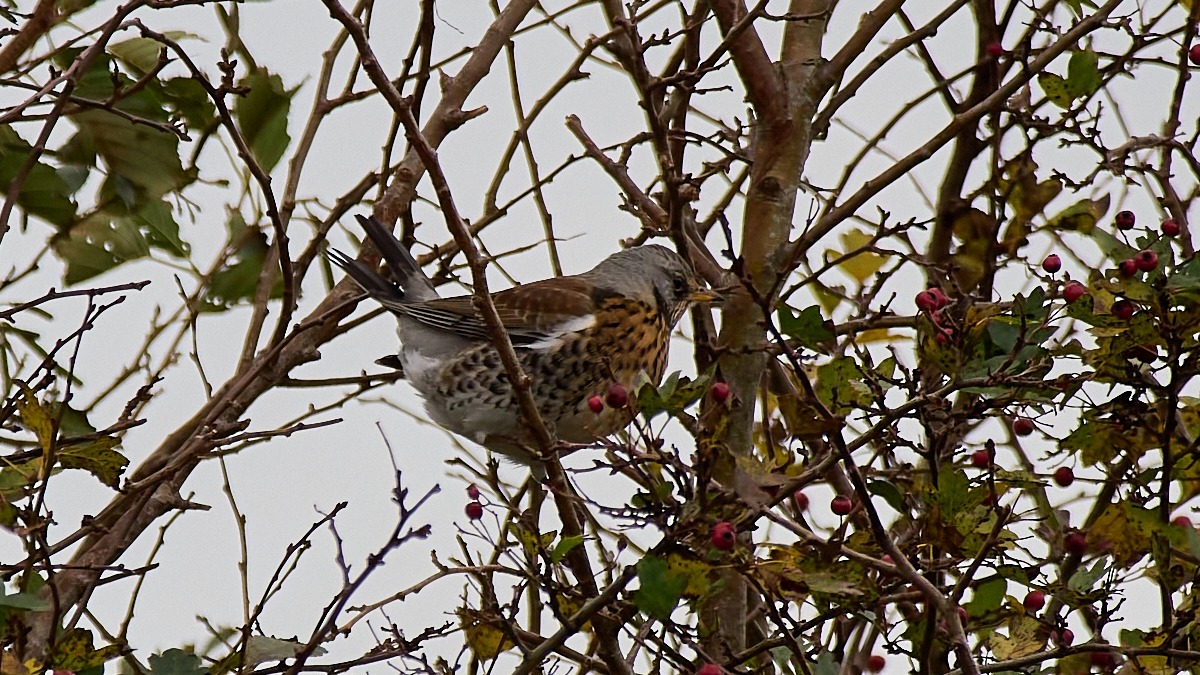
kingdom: Animalia
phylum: Chordata
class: Aves
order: Passeriformes
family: Turdidae
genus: Turdus
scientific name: Turdus pilaris
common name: Sjagger
